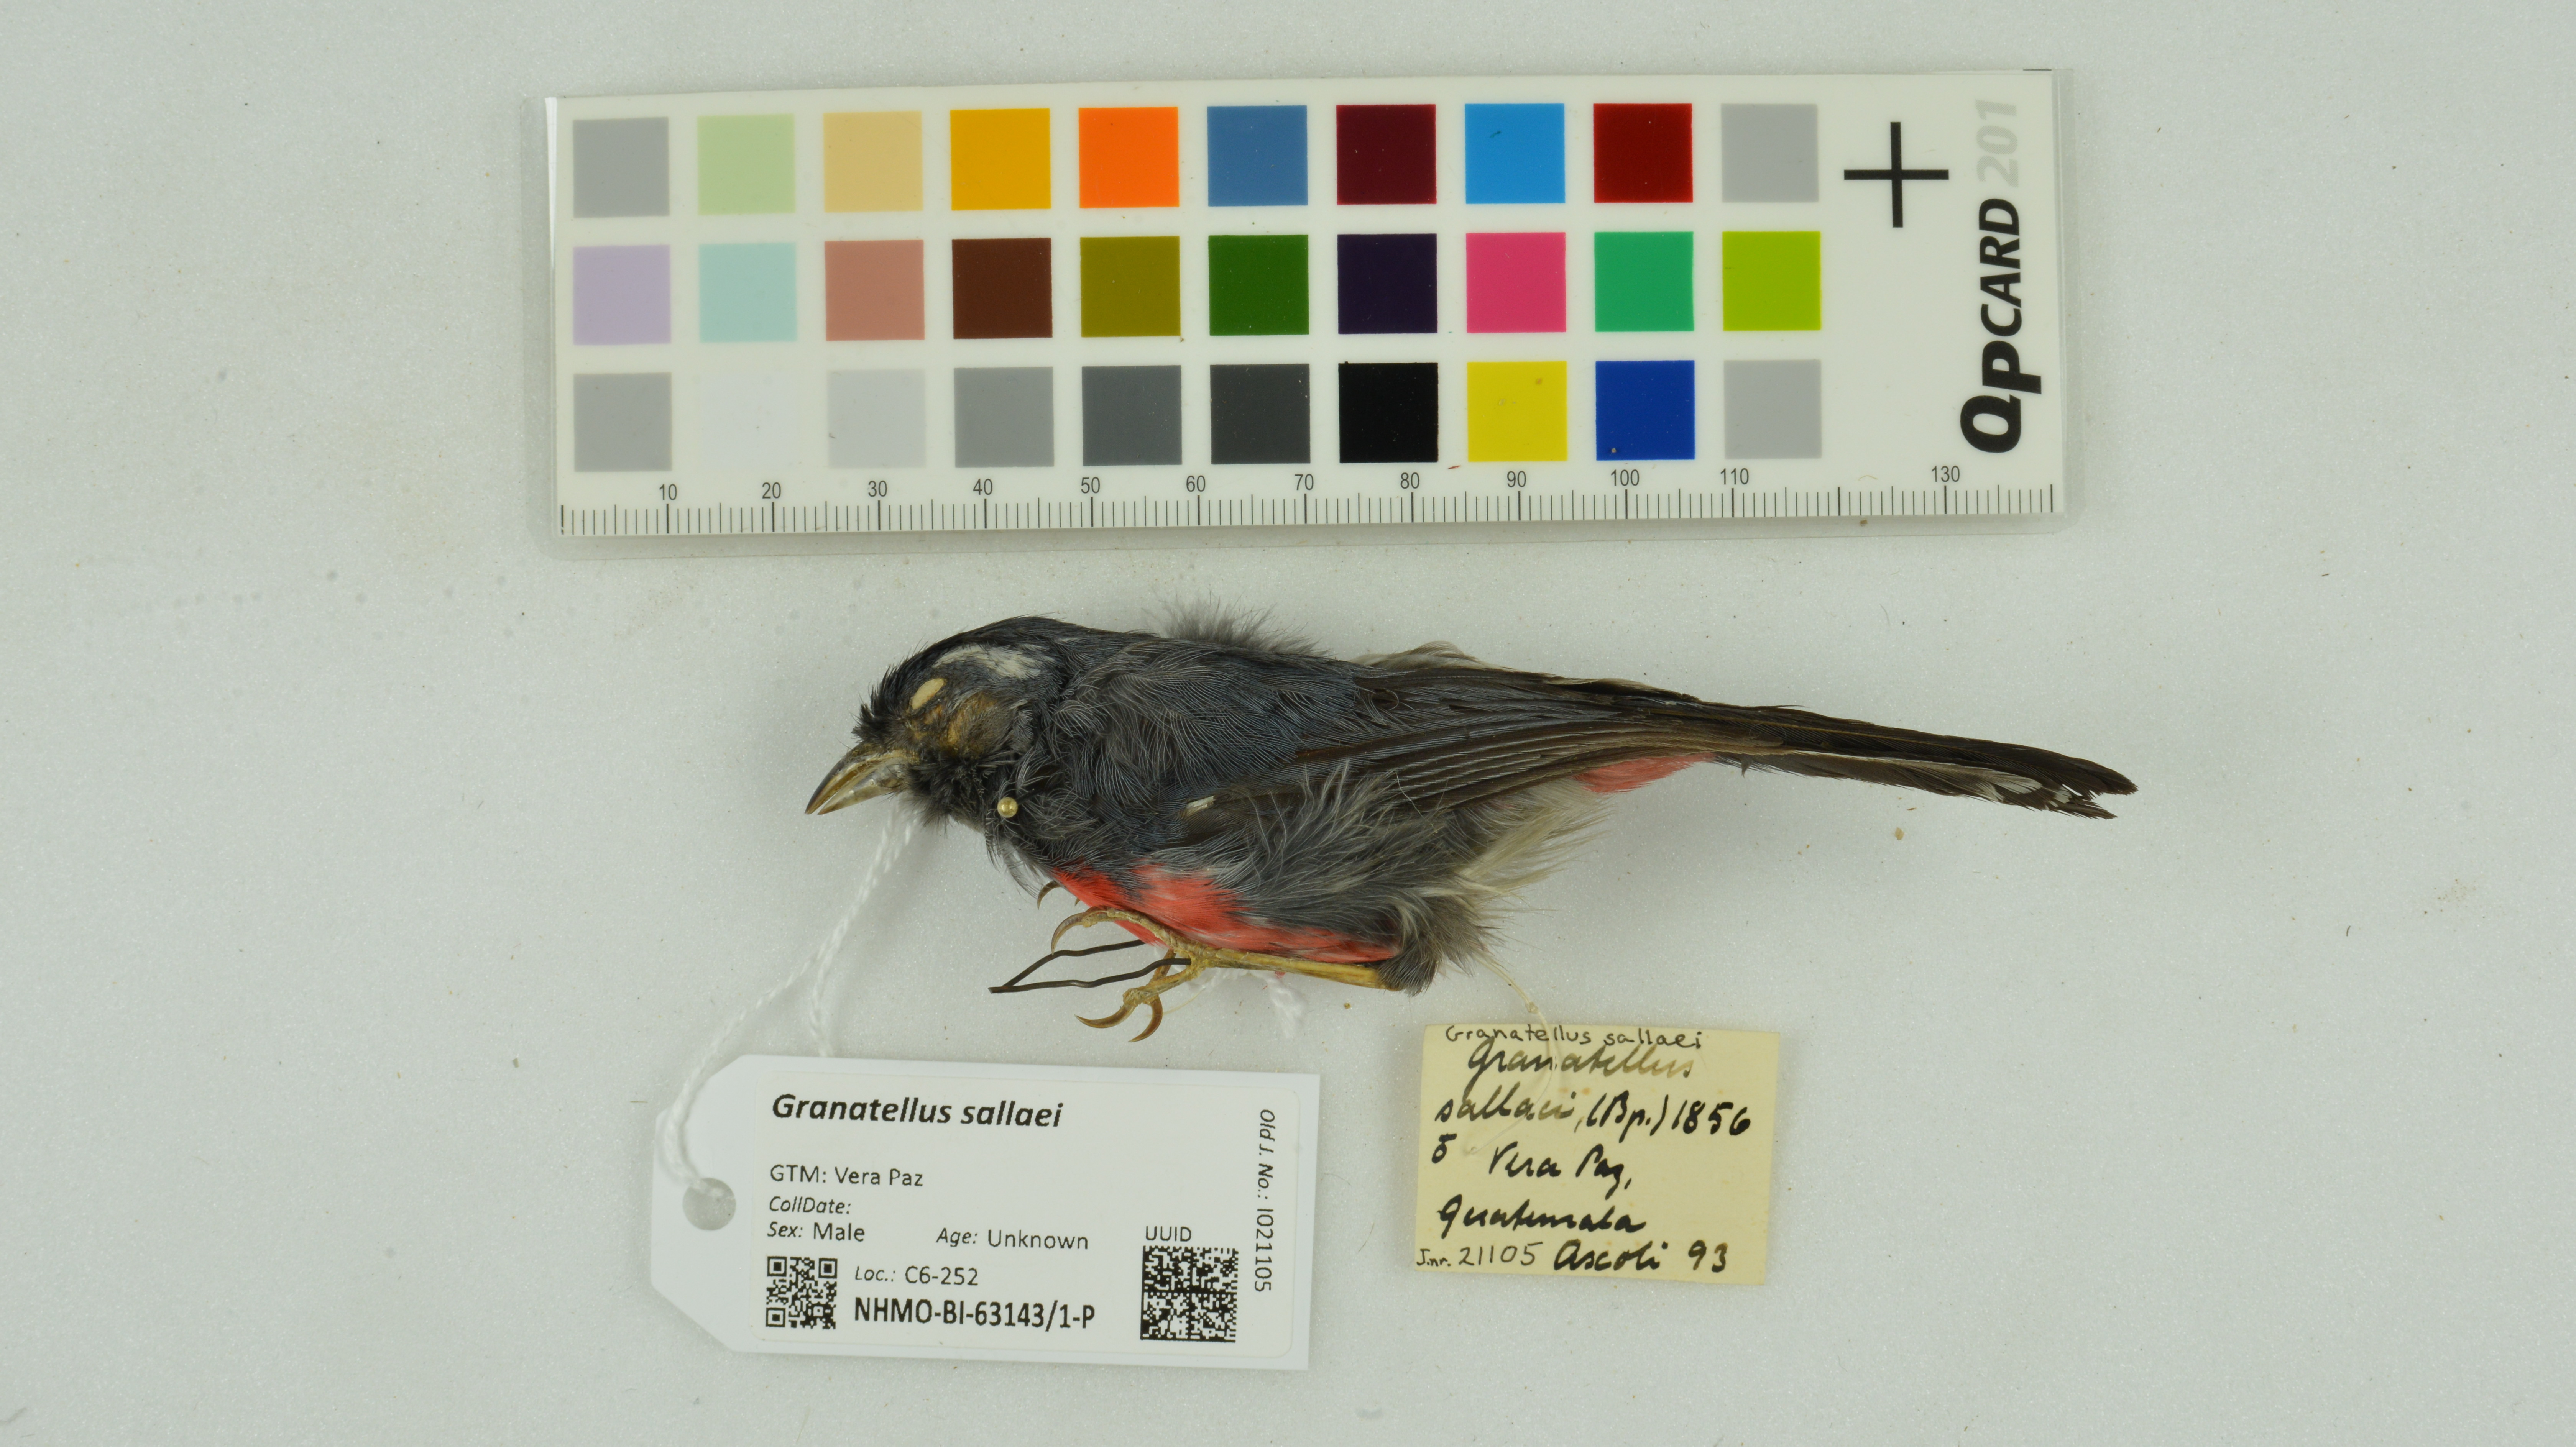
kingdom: Animalia
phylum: Chordata
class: Aves
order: Passeriformes
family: Cardinalidae
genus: Granatellus
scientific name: Granatellus sallaei
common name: Gray-throated chat
